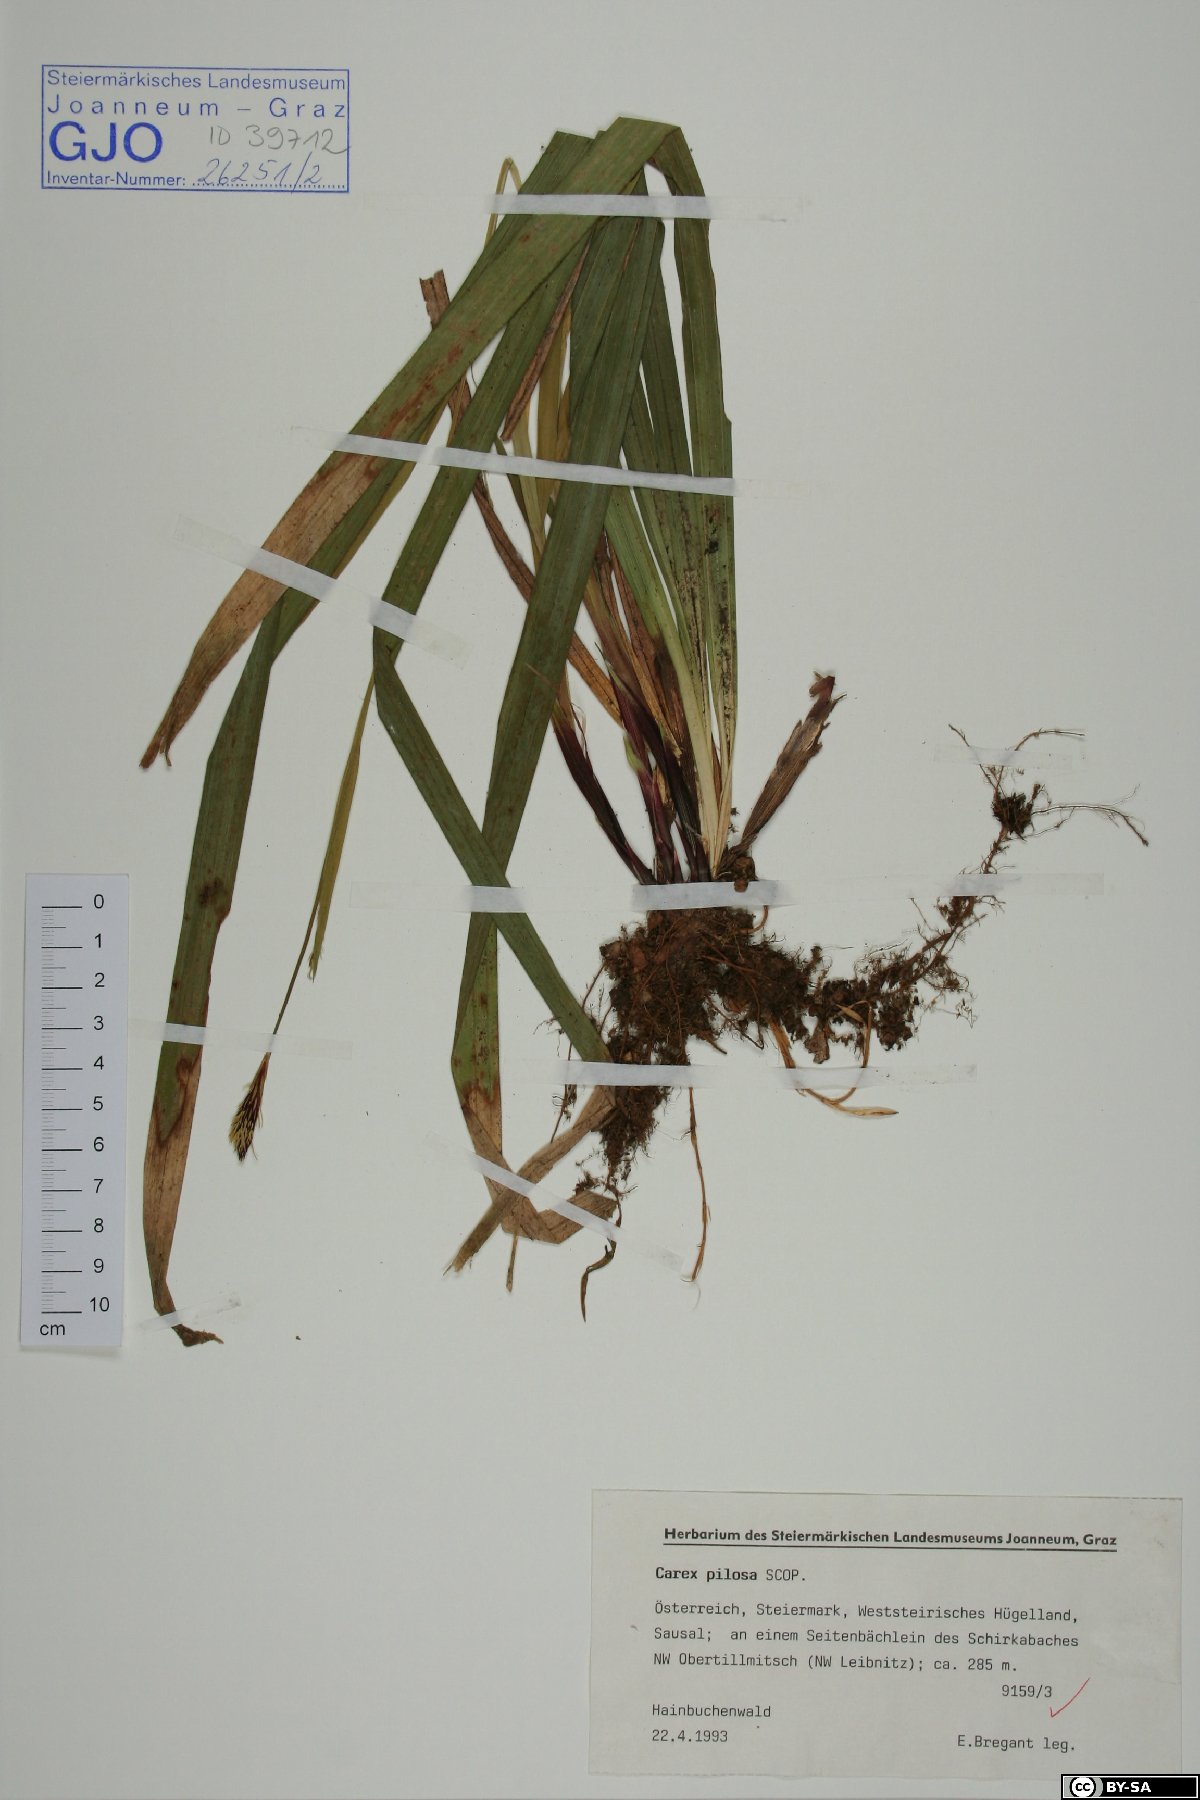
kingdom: Plantae
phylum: Tracheophyta
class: Liliopsida
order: Poales
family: Cyperaceae
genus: Carex
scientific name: Carex pilosa
